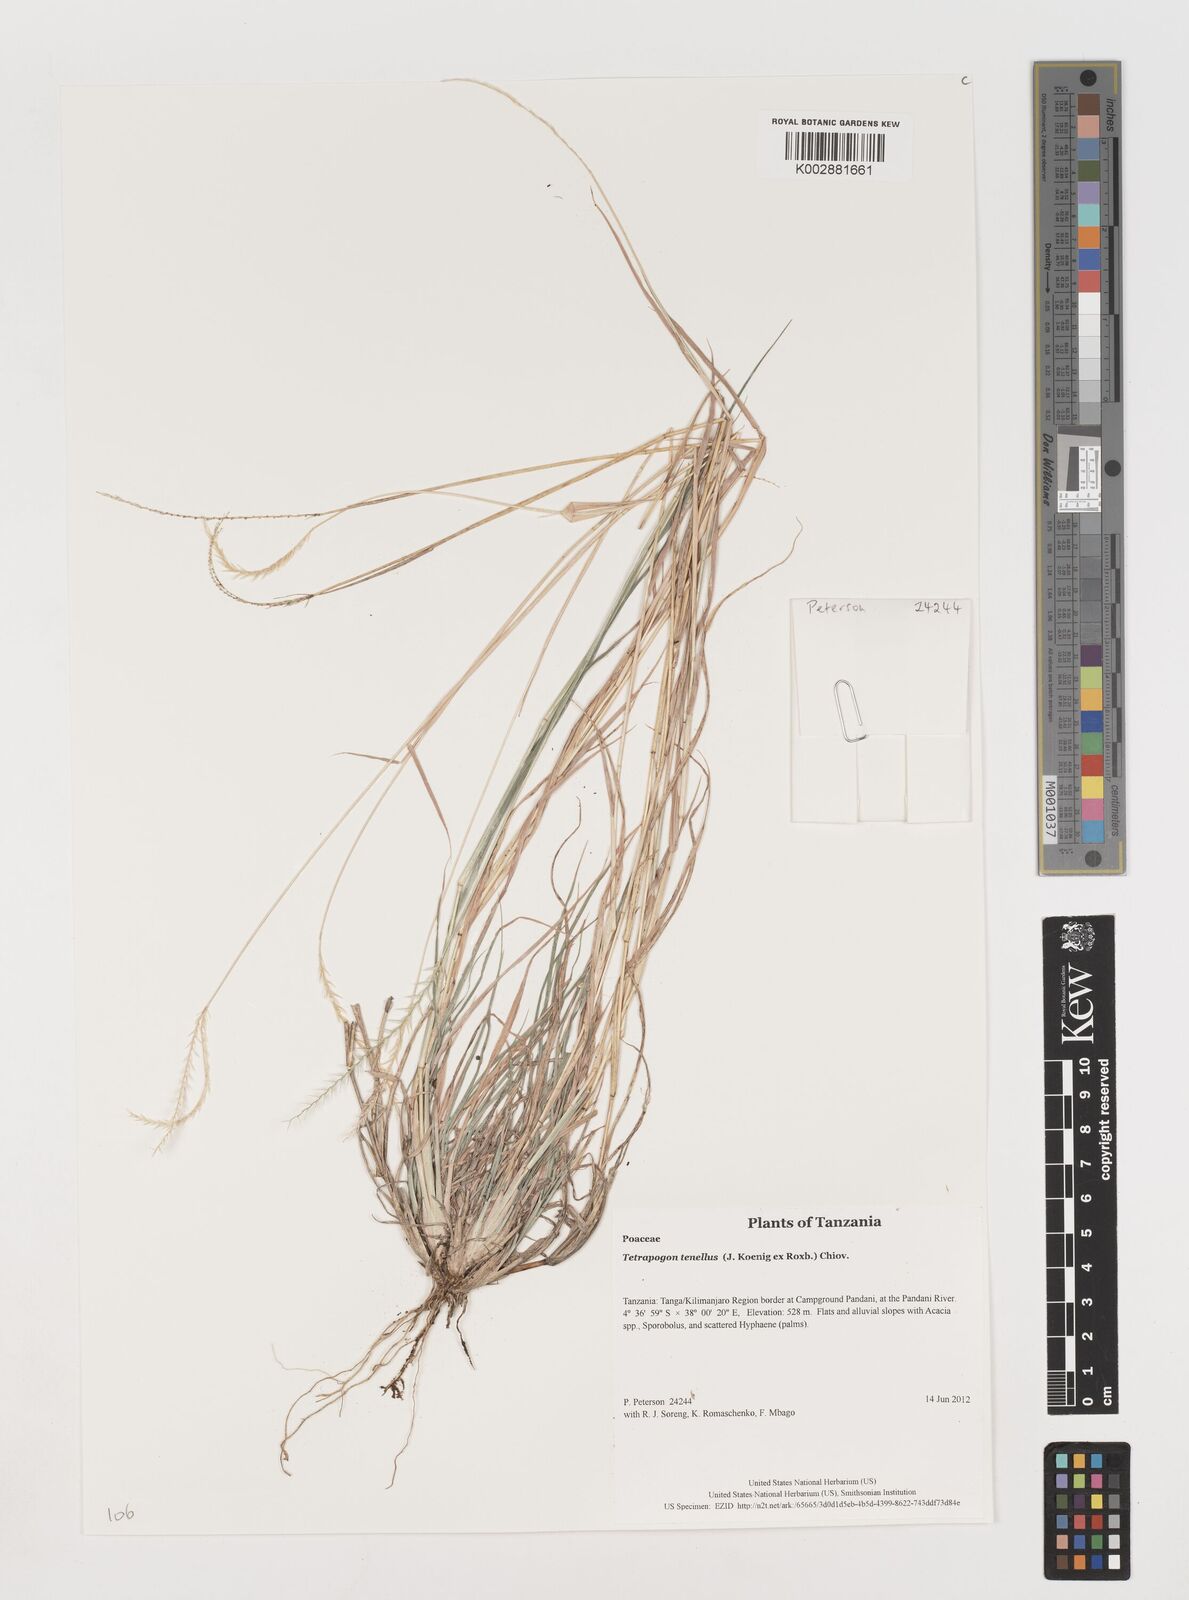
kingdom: Plantae
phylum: Tracheophyta
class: Liliopsida
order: Poales
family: Poaceae
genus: Tetrapogon
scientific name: Tetrapogon tenellus
